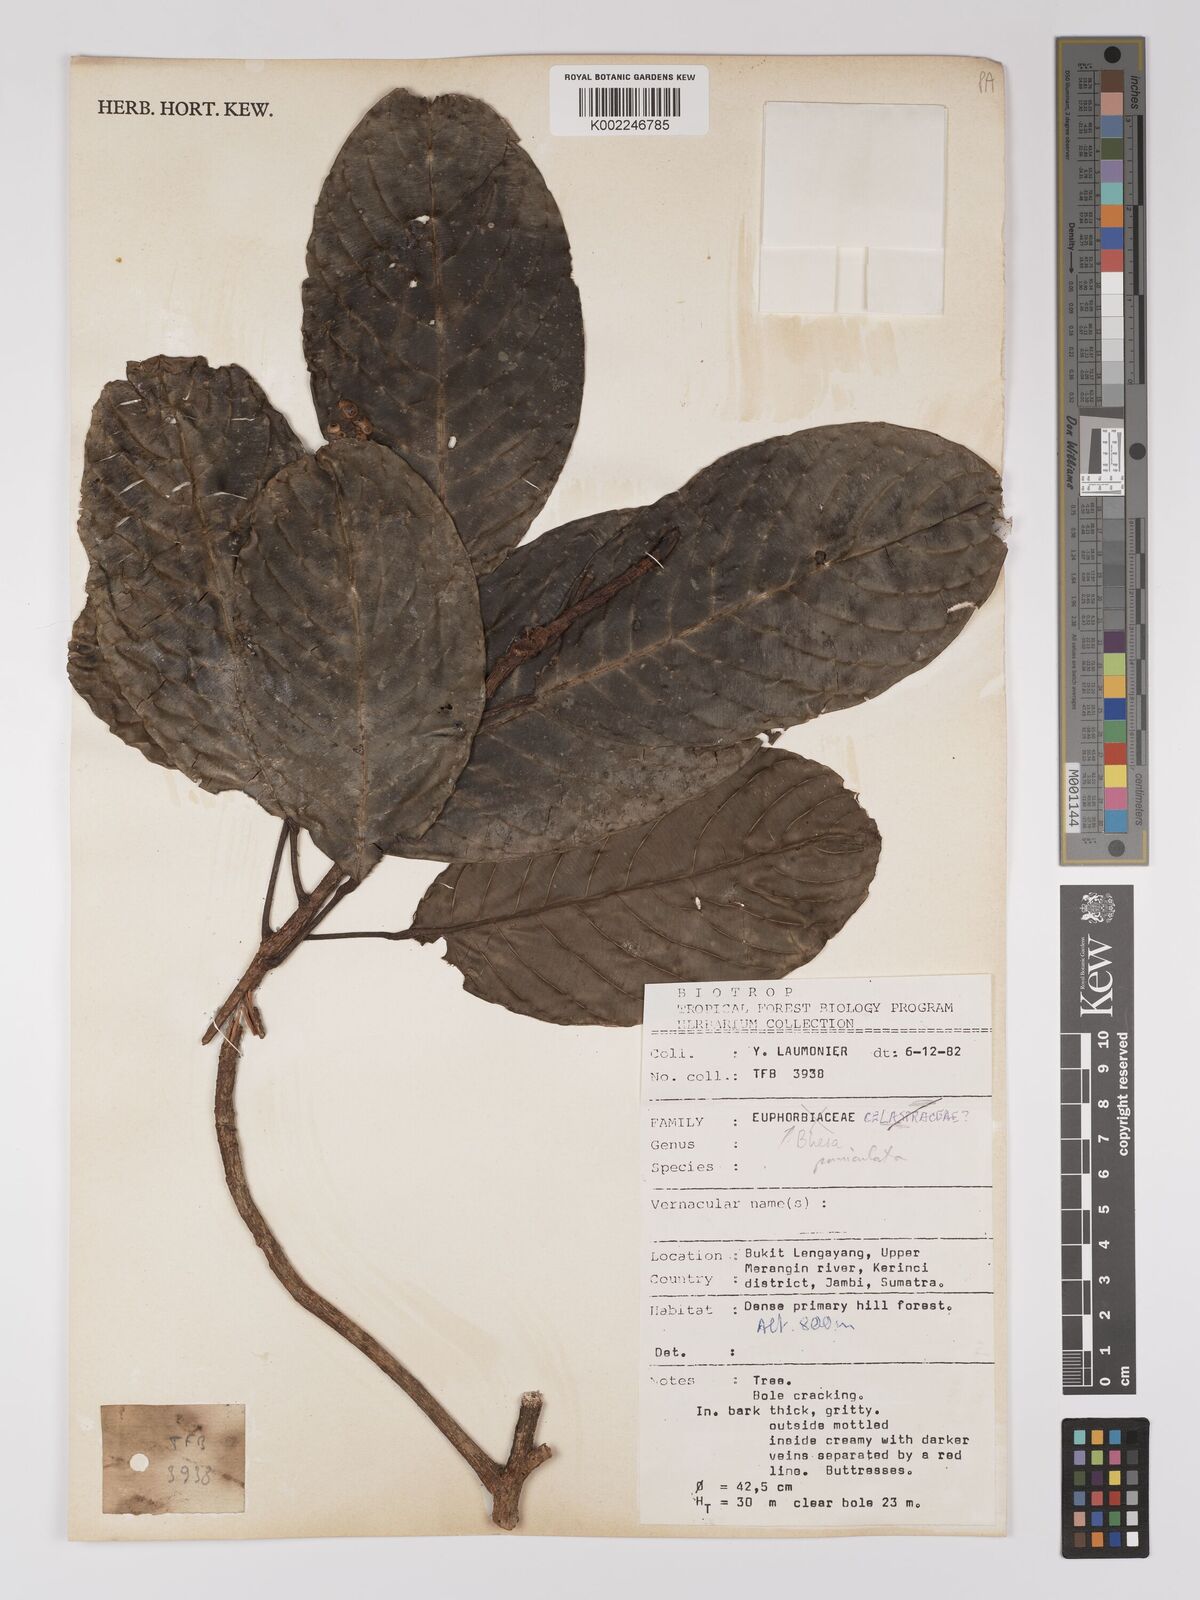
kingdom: Plantae
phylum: Tracheophyta
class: Magnoliopsida
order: Malpighiales
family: Centroplacaceae
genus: Bhesa
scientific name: Bhesa paniculata
